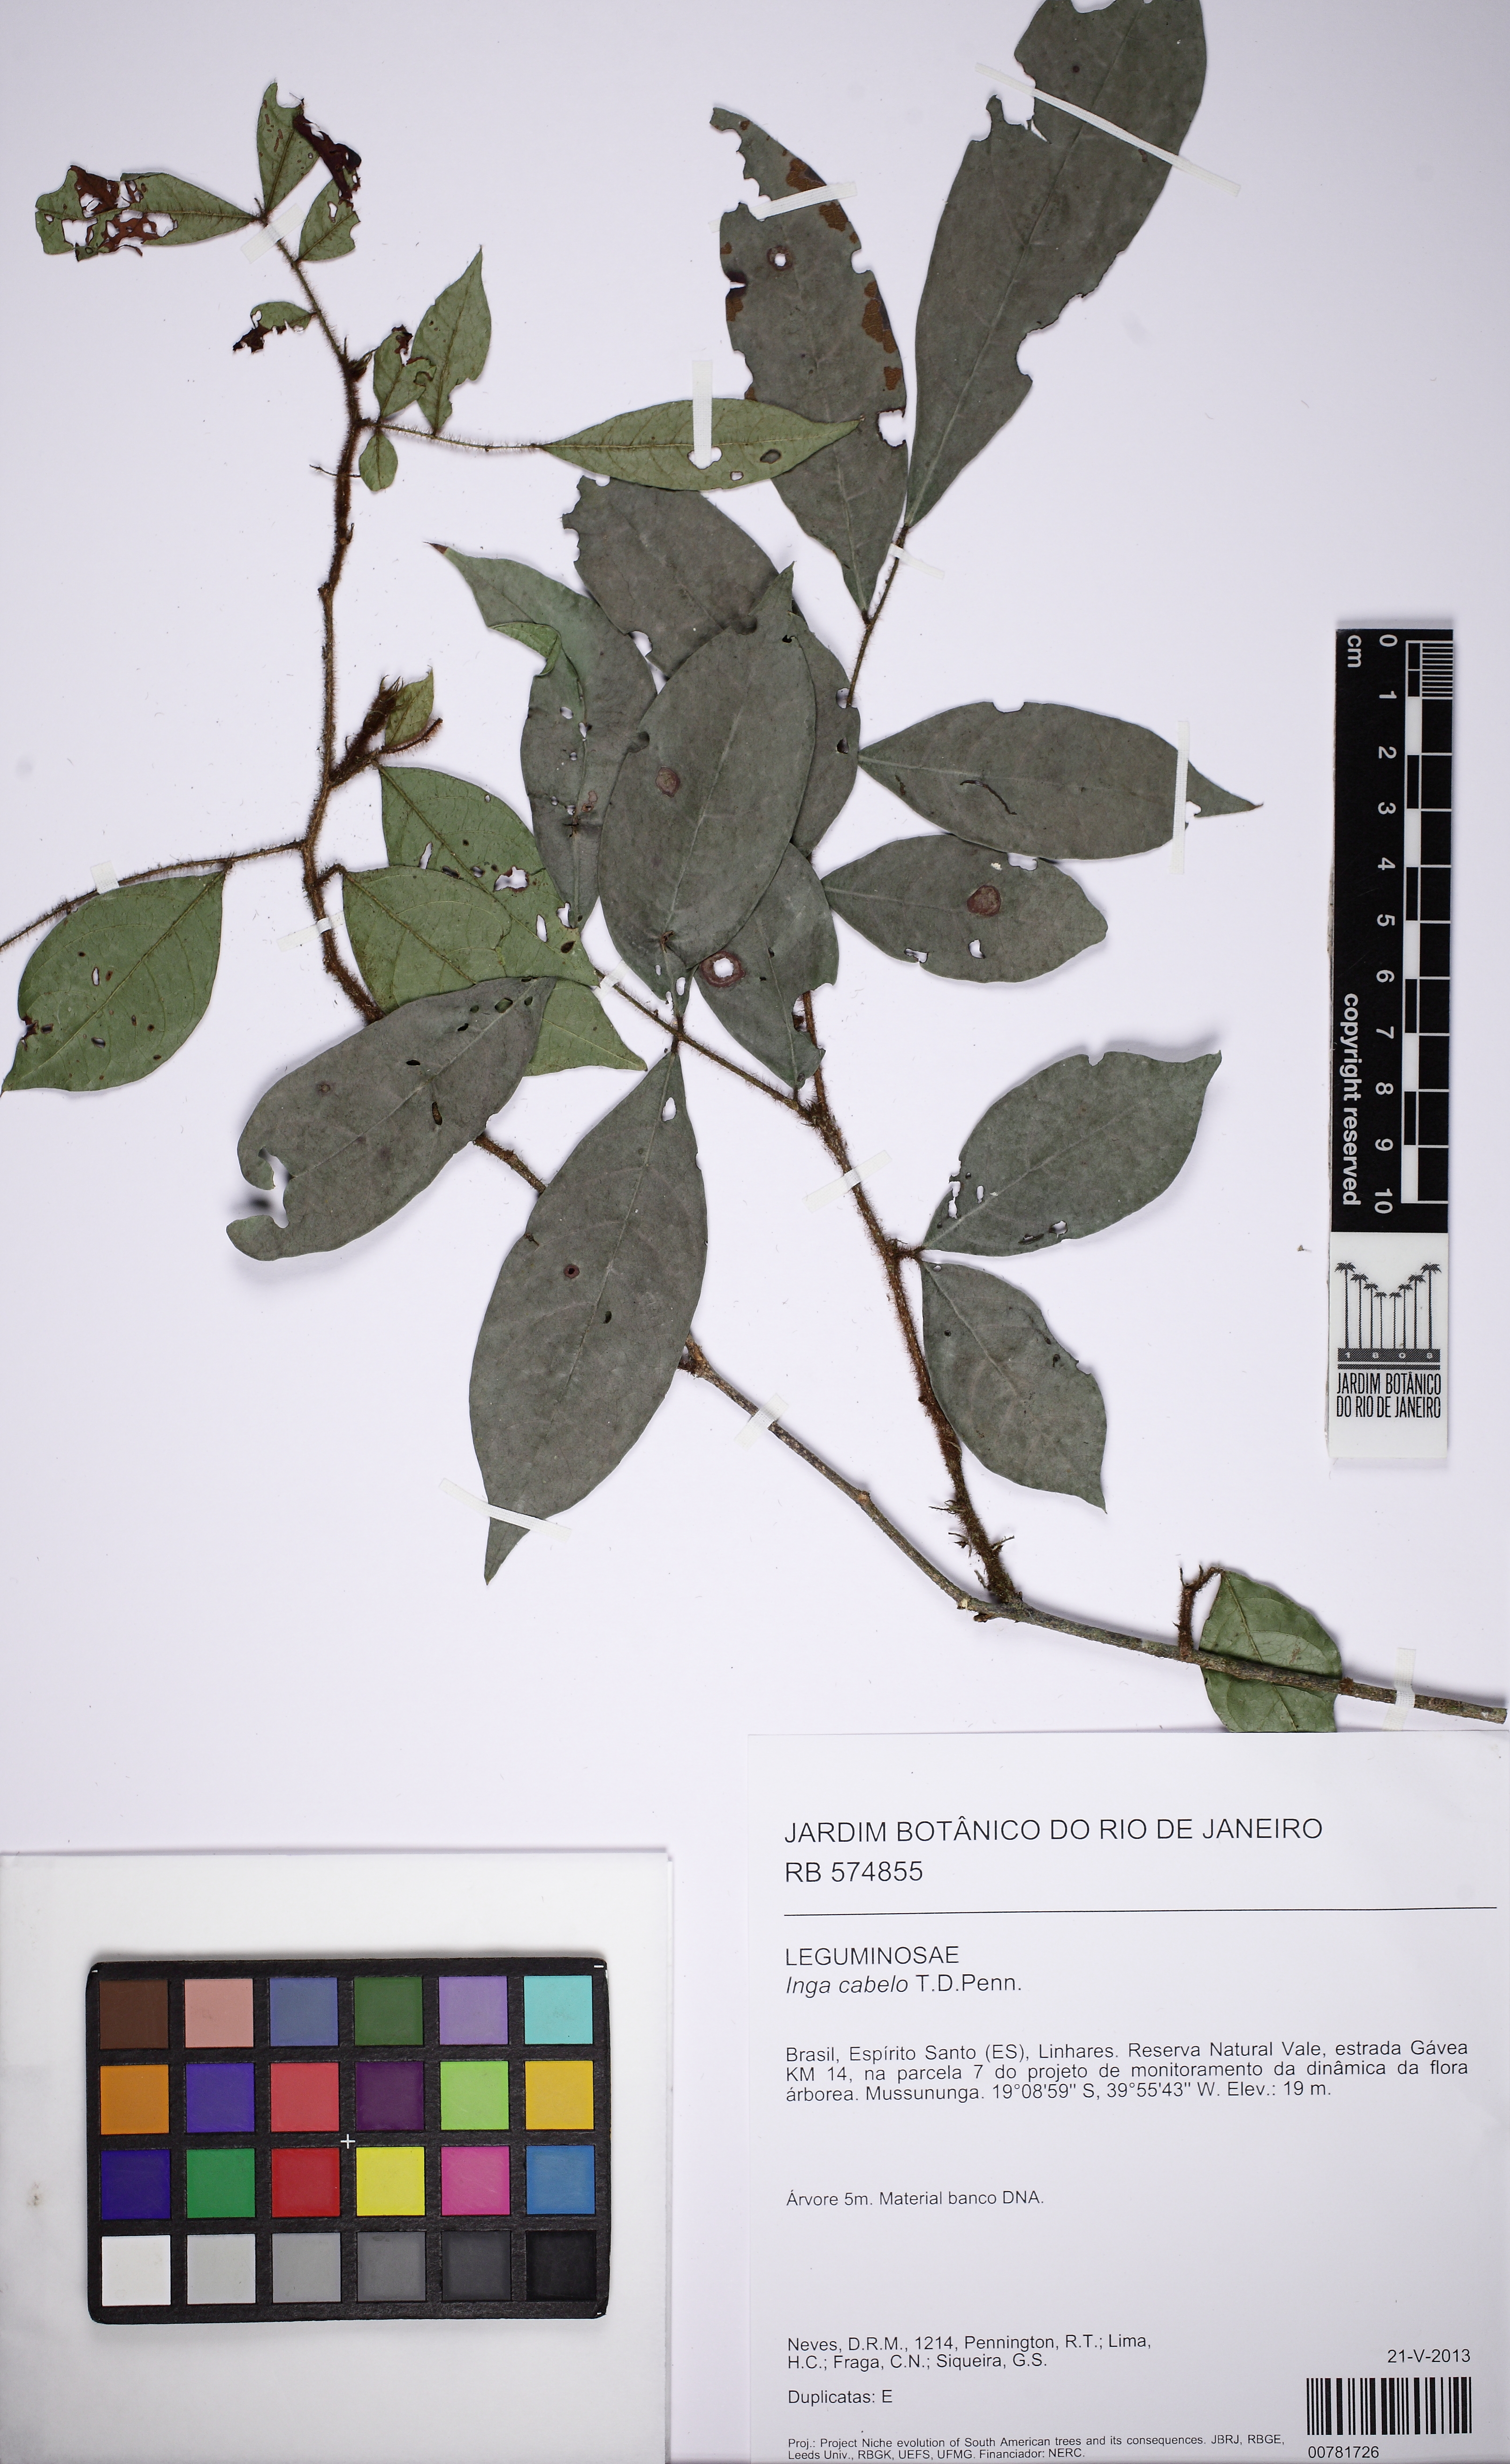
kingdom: Plantae
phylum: Tracheophyta
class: Magnoliopsida
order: Fabales
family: Fabaceae
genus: Inga
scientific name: Inga cabelo
